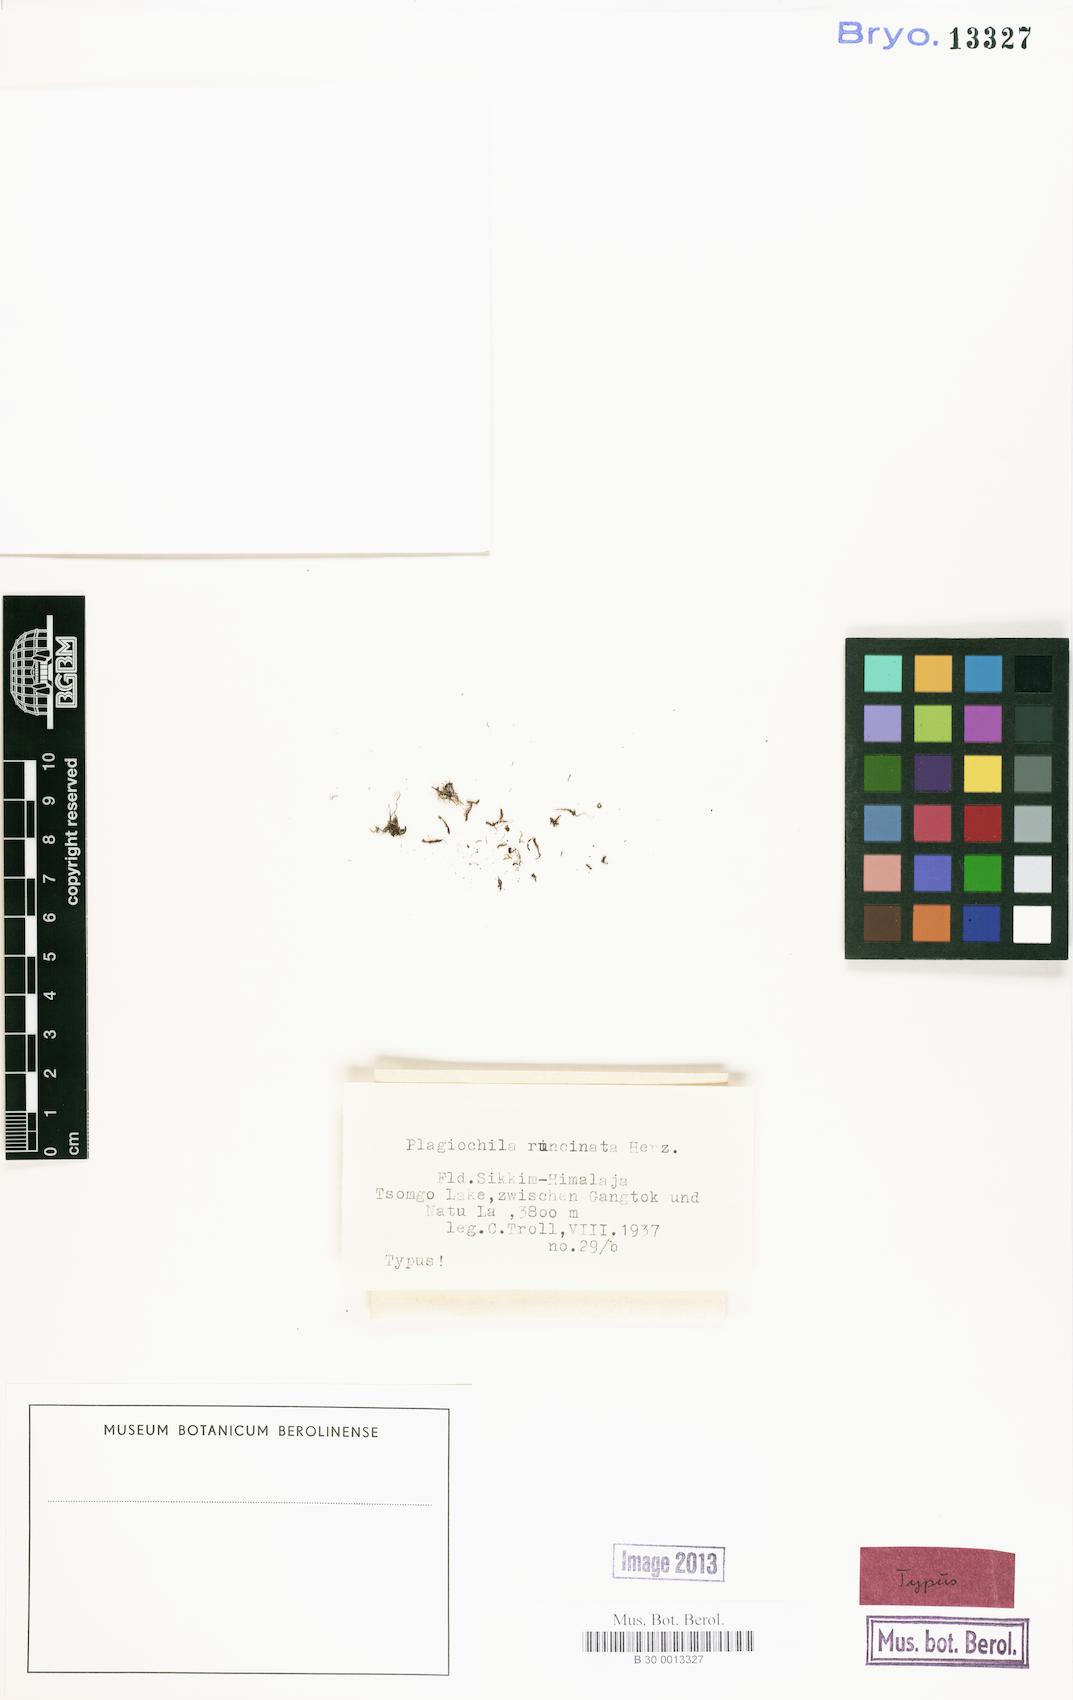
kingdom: Plantae
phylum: Marchantiophyta
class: Jungermanniopsida
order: Jungermanniales
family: Plagiochilaceae
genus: Plagiochila
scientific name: Plagiochila devexa
